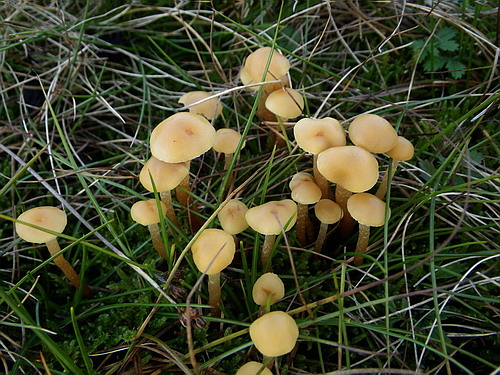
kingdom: Fungi
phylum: Basidiomycota
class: Agaricomycetes
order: Agaricales
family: Strophariaceae
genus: Hypholoma
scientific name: Hypholoma elongatum
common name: slank svovlhat
